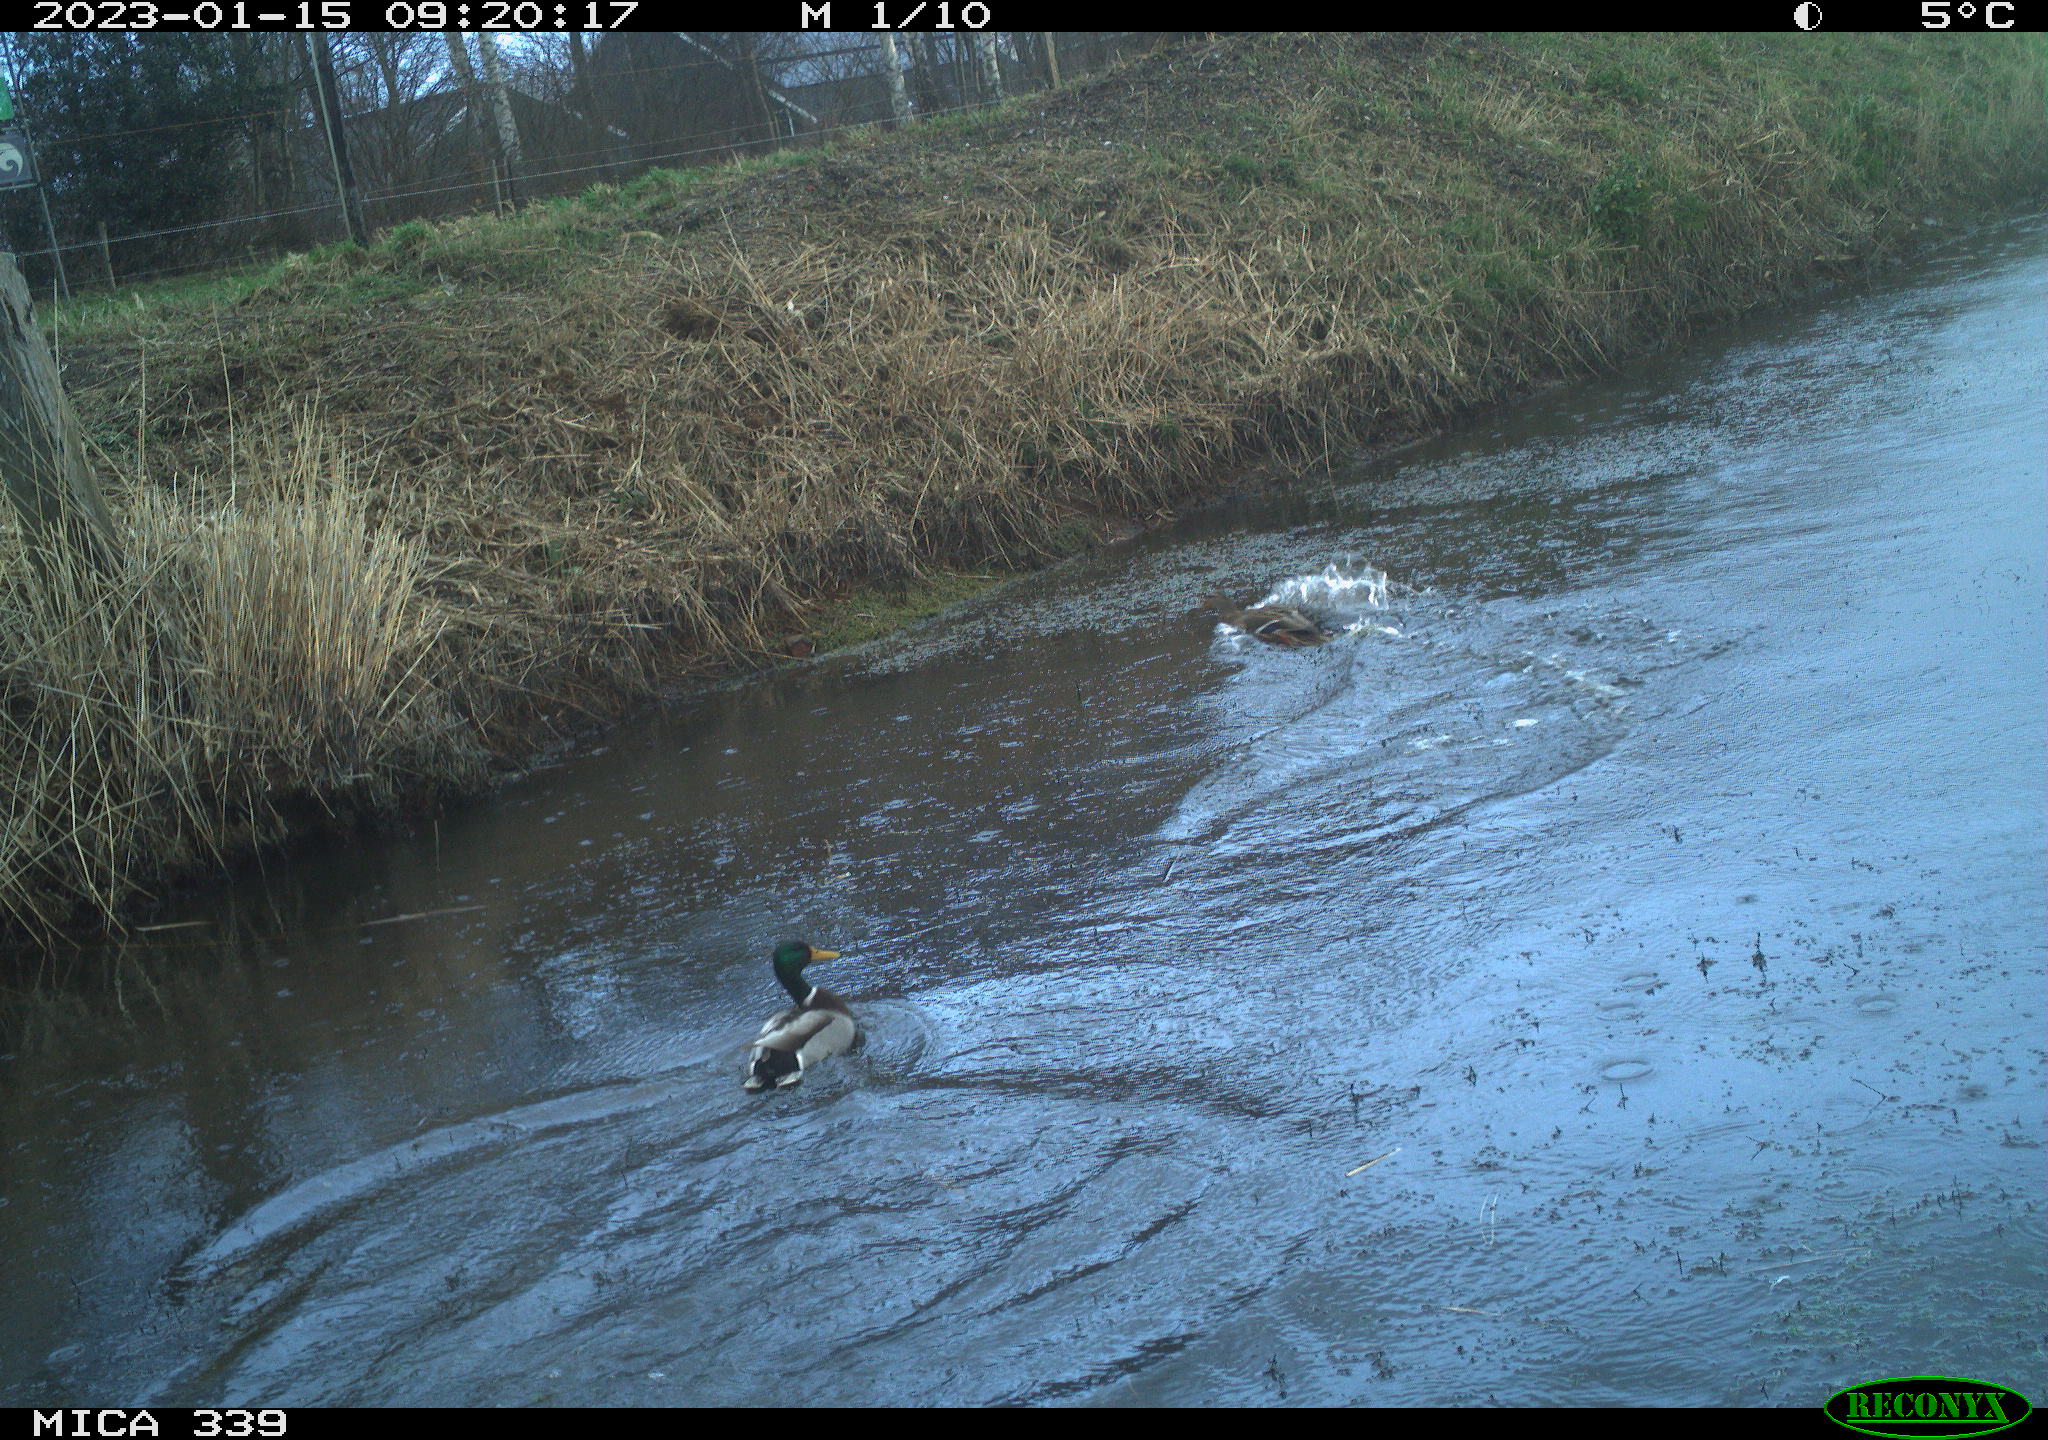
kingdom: Animalia
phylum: Chordata
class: Aves
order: Anseriformes
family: Anatidae
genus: Anas
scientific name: Anas
